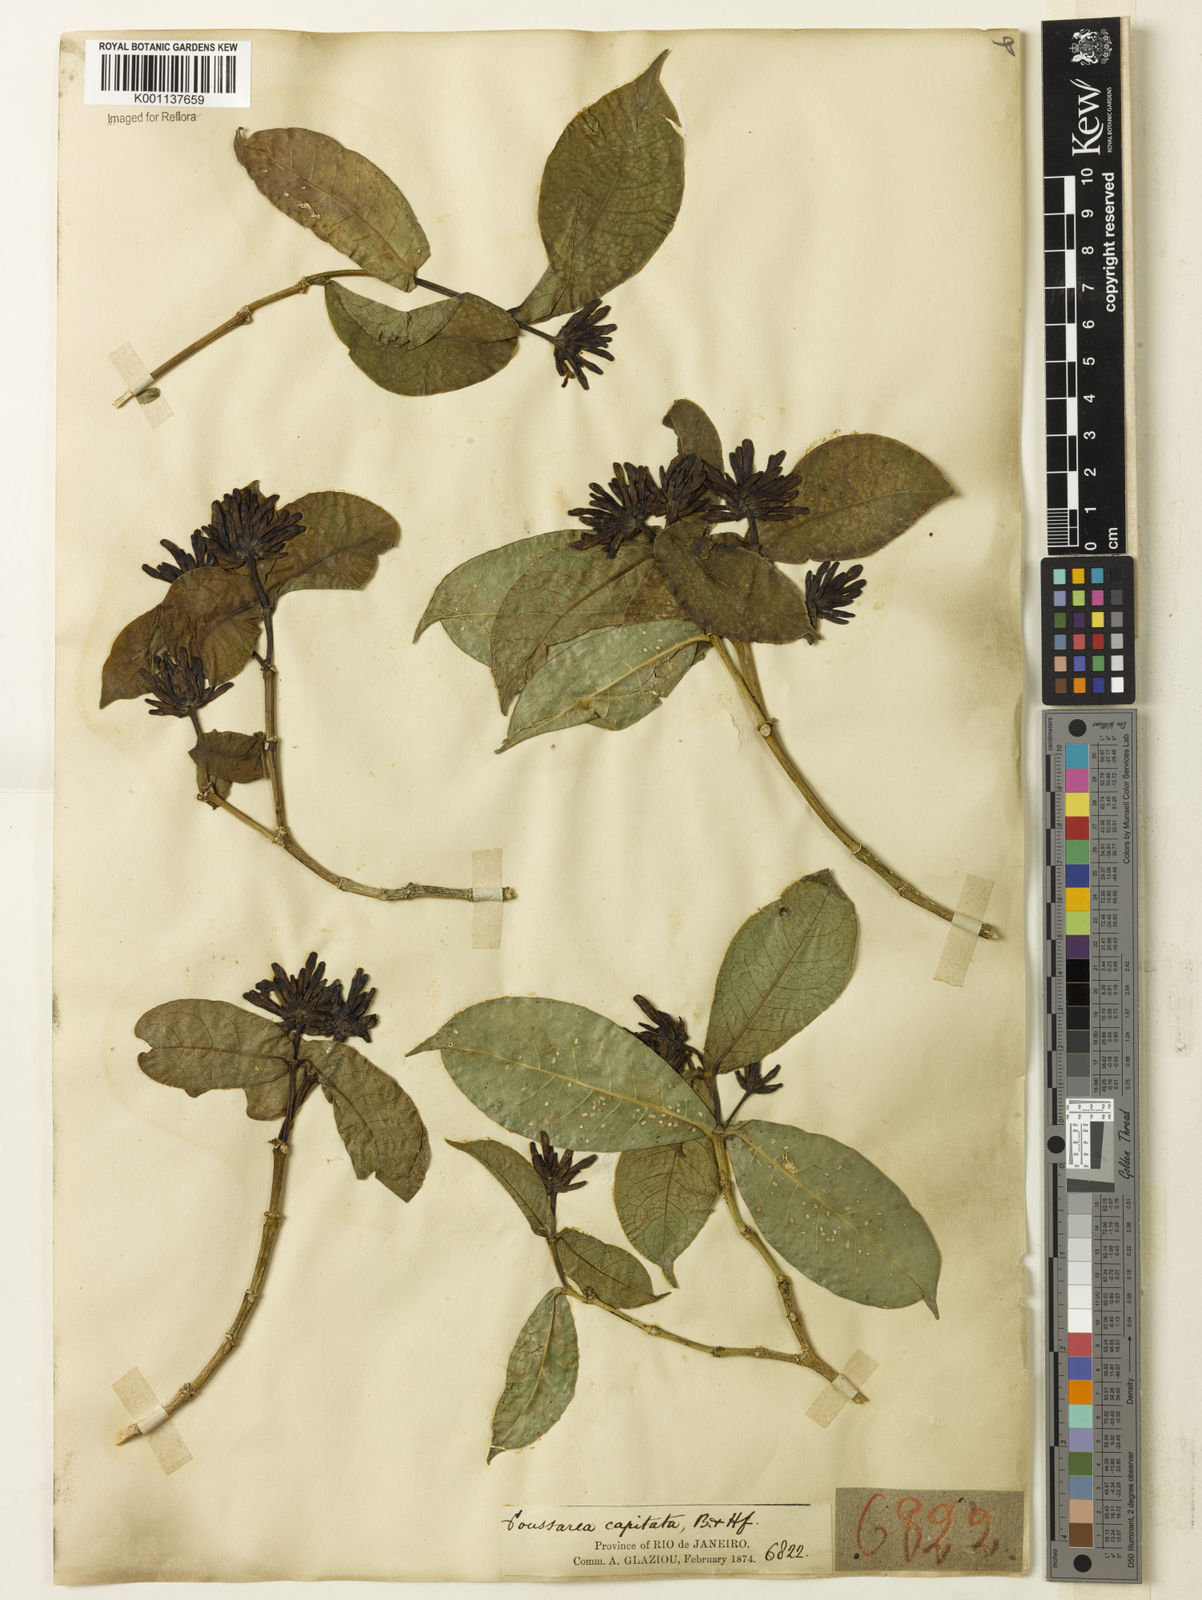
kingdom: Plantae
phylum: Tracheophyta
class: Magnoliopsida
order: Gentianales
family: Rubiaceae
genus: Coussarea
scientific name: Coussarea
